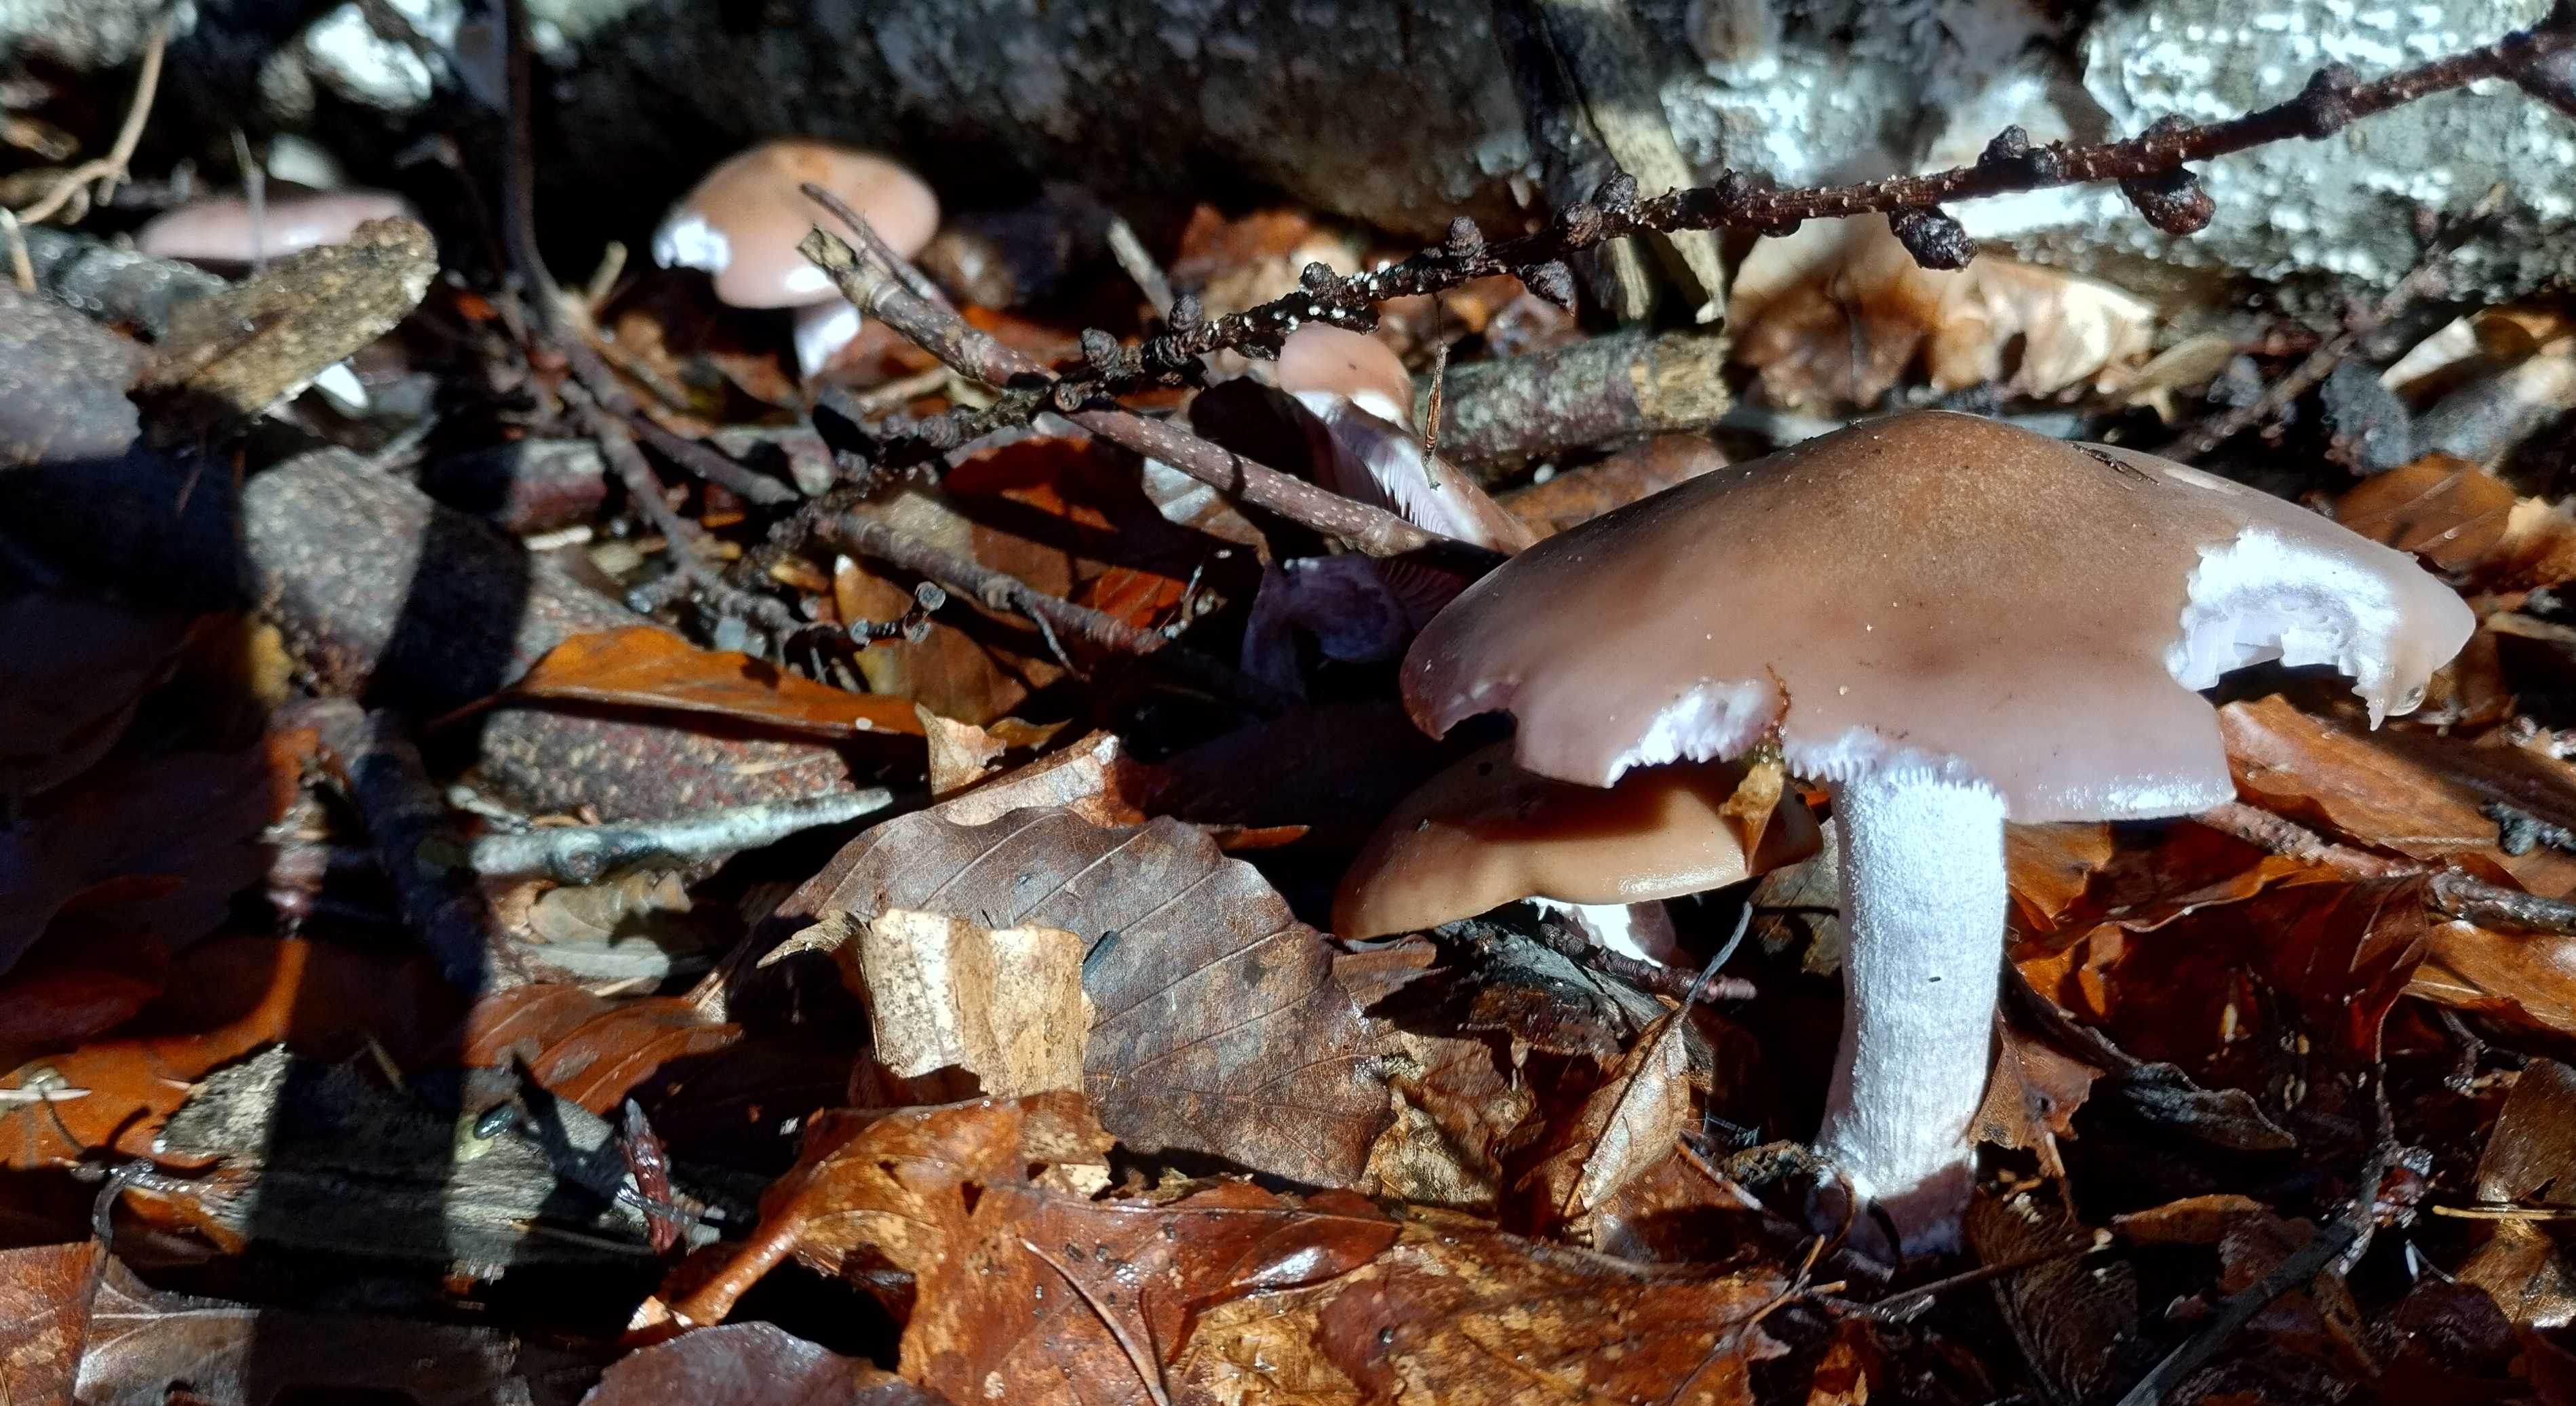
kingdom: Fungi
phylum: Basidiomycota
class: Agaricomycetes
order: Agaricales
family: Tricholomataceae
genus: Lepista
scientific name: Lepista nuda
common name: violet hekseringshat
